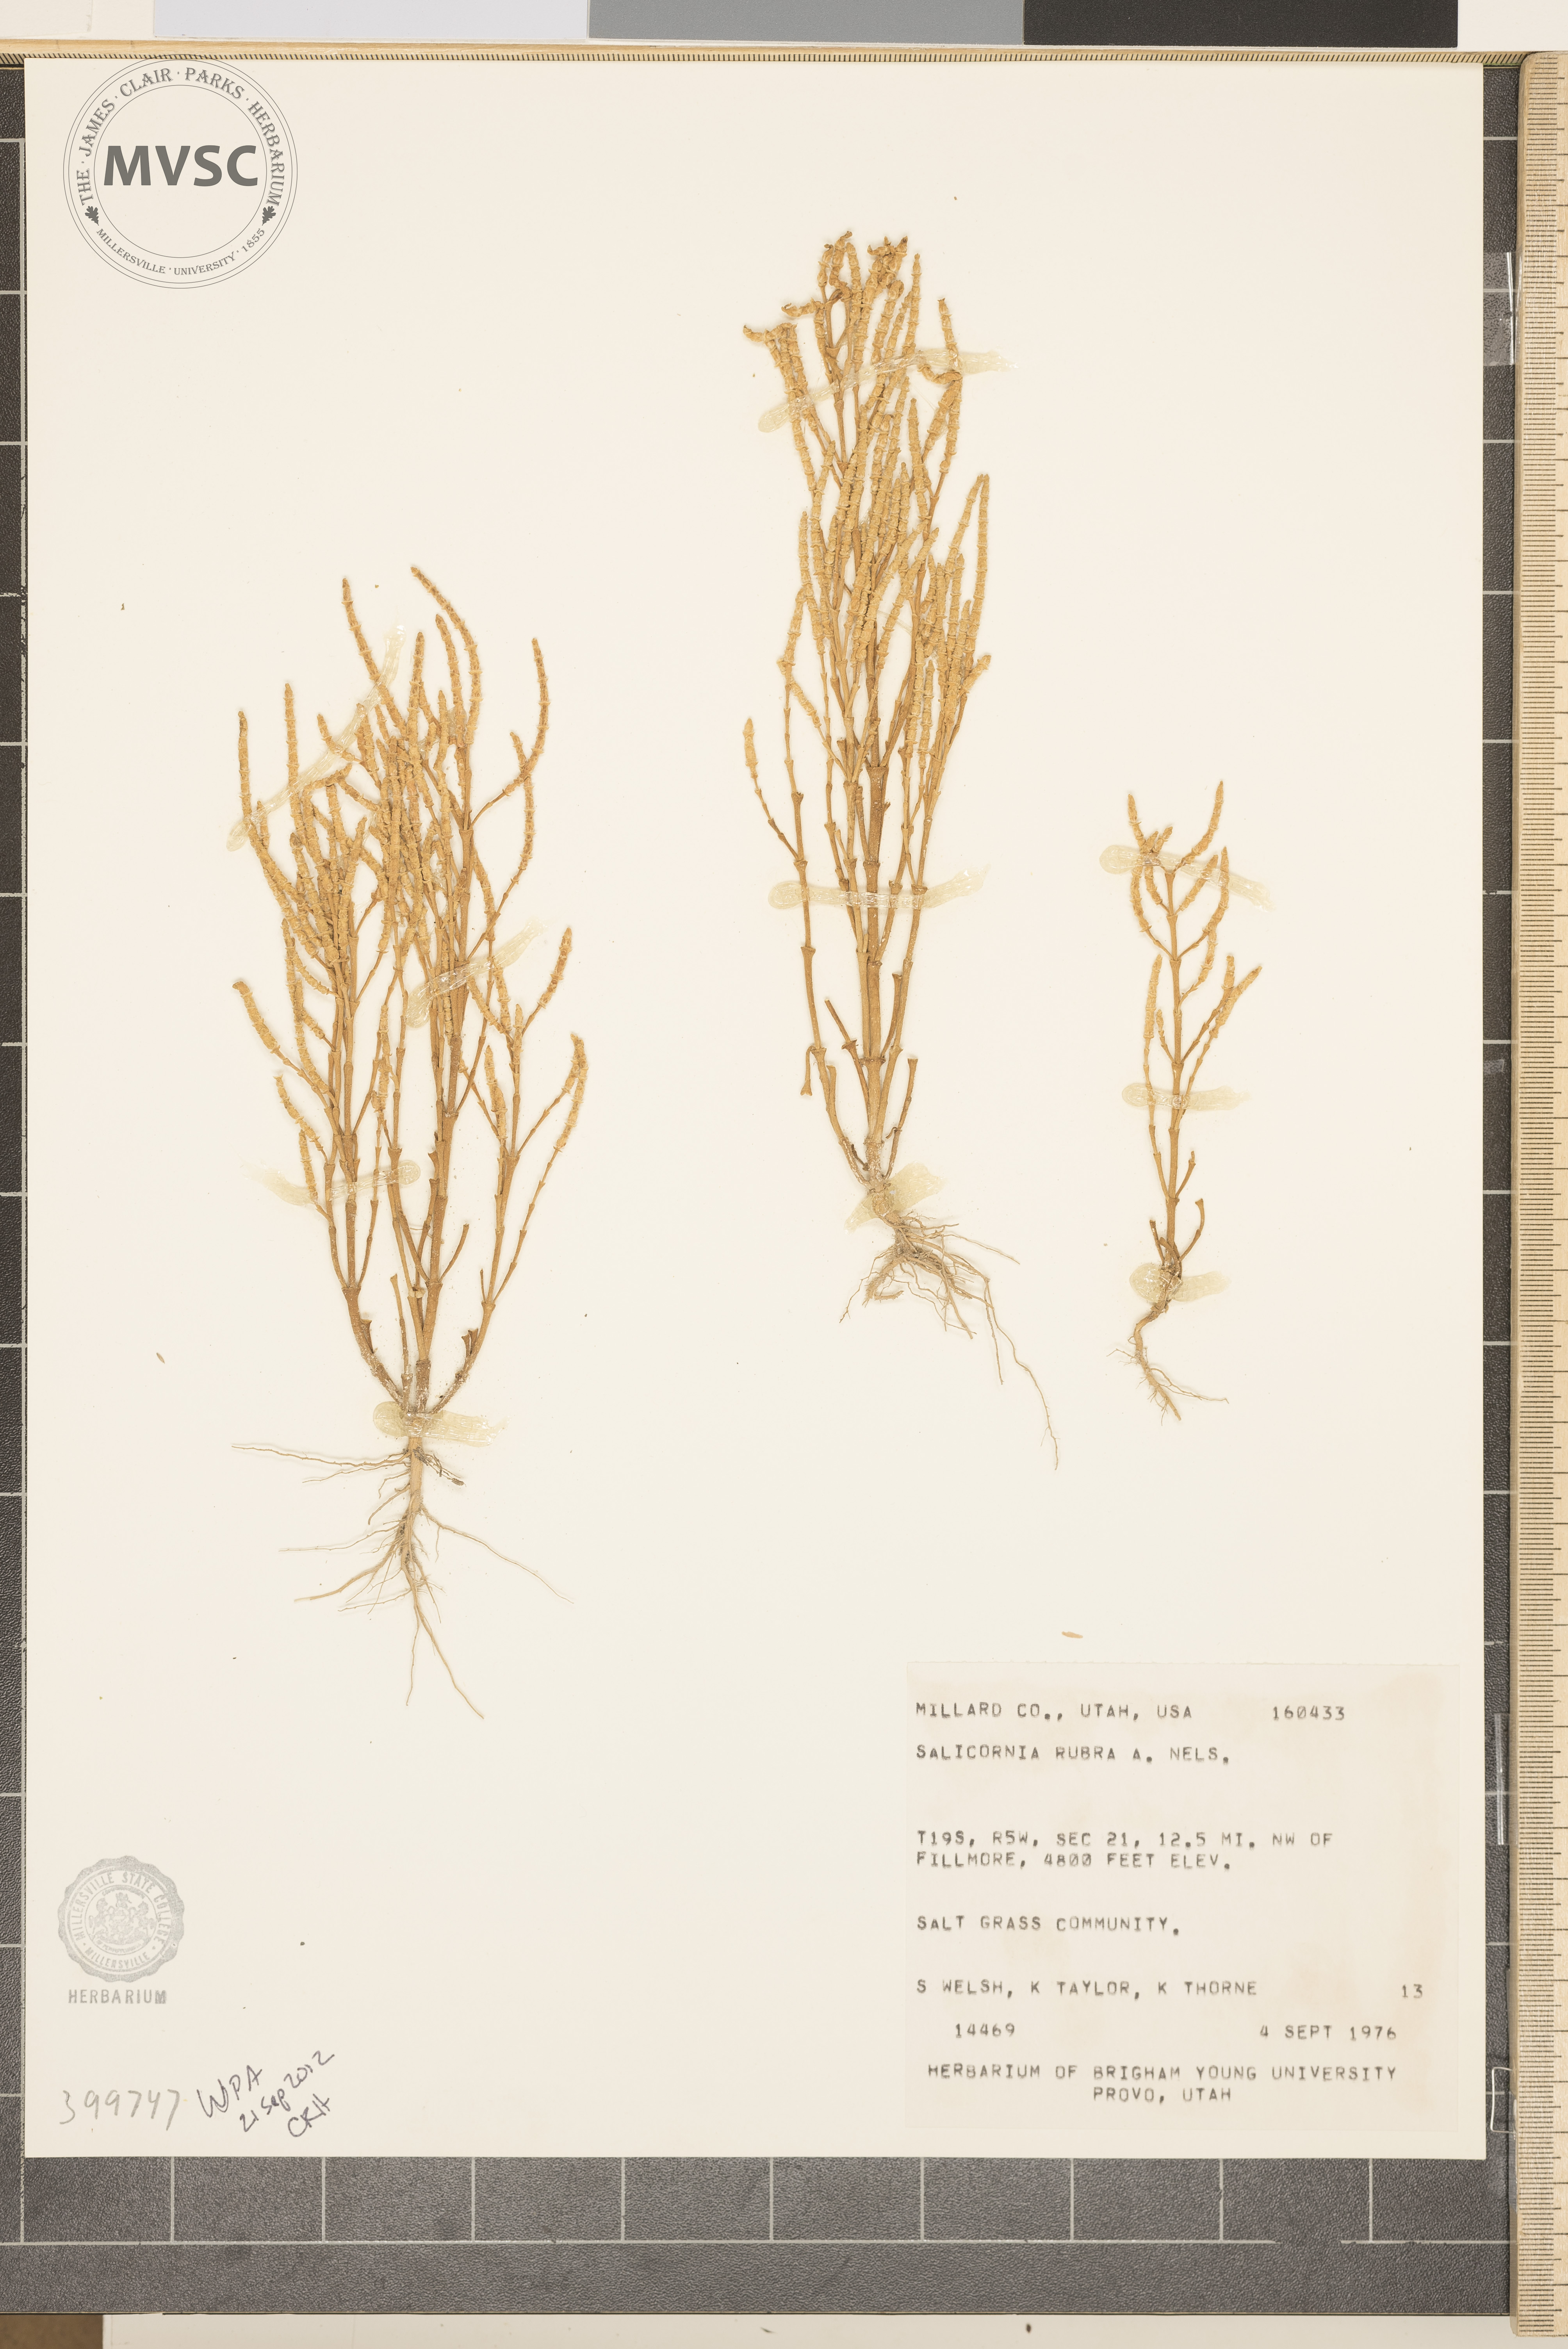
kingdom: Plantae
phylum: Tracheophyta
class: Magnoliopsida
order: Caryophyllales
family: Amaranthaceae
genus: Salicornia
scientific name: Salicornia rubra
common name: red swampfire
